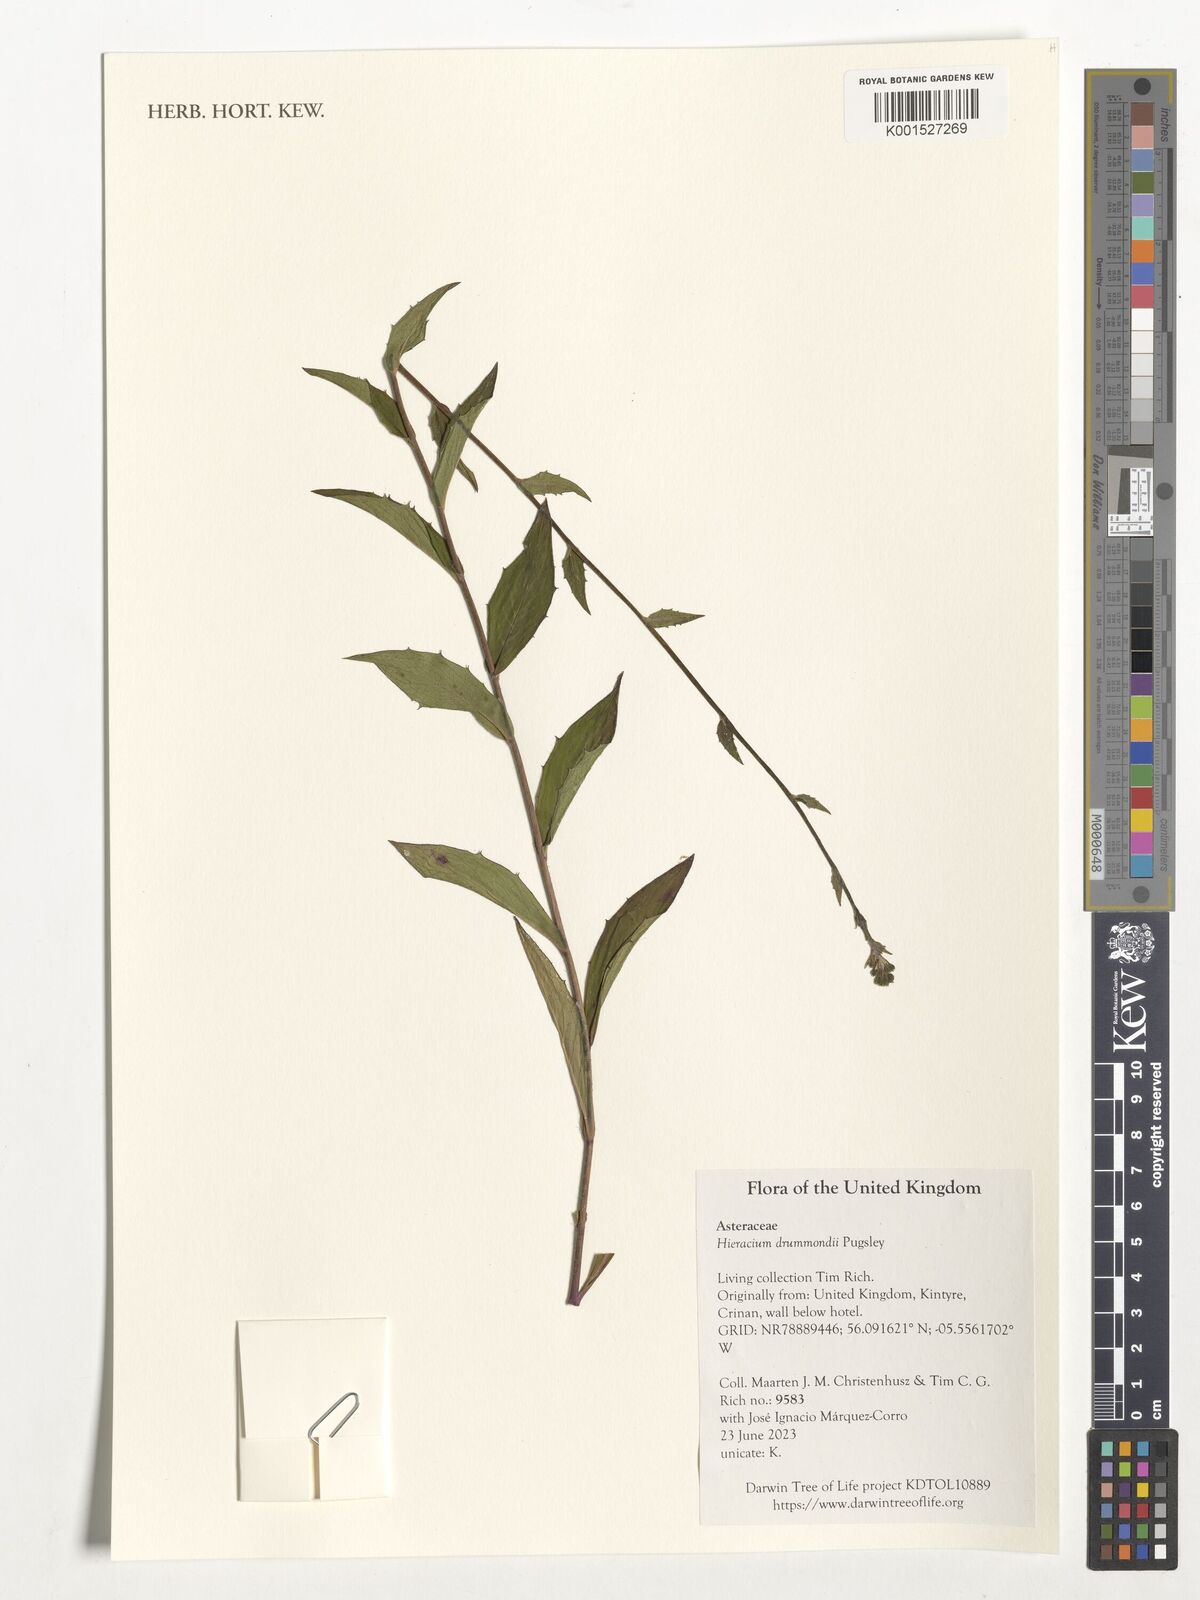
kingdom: Plantae
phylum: Tracheophyta
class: Magnoliopsida
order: Asterales
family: Asteraceae
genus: Hieracium
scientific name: Hieracium drummondii
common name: Drummond's hawkweed
